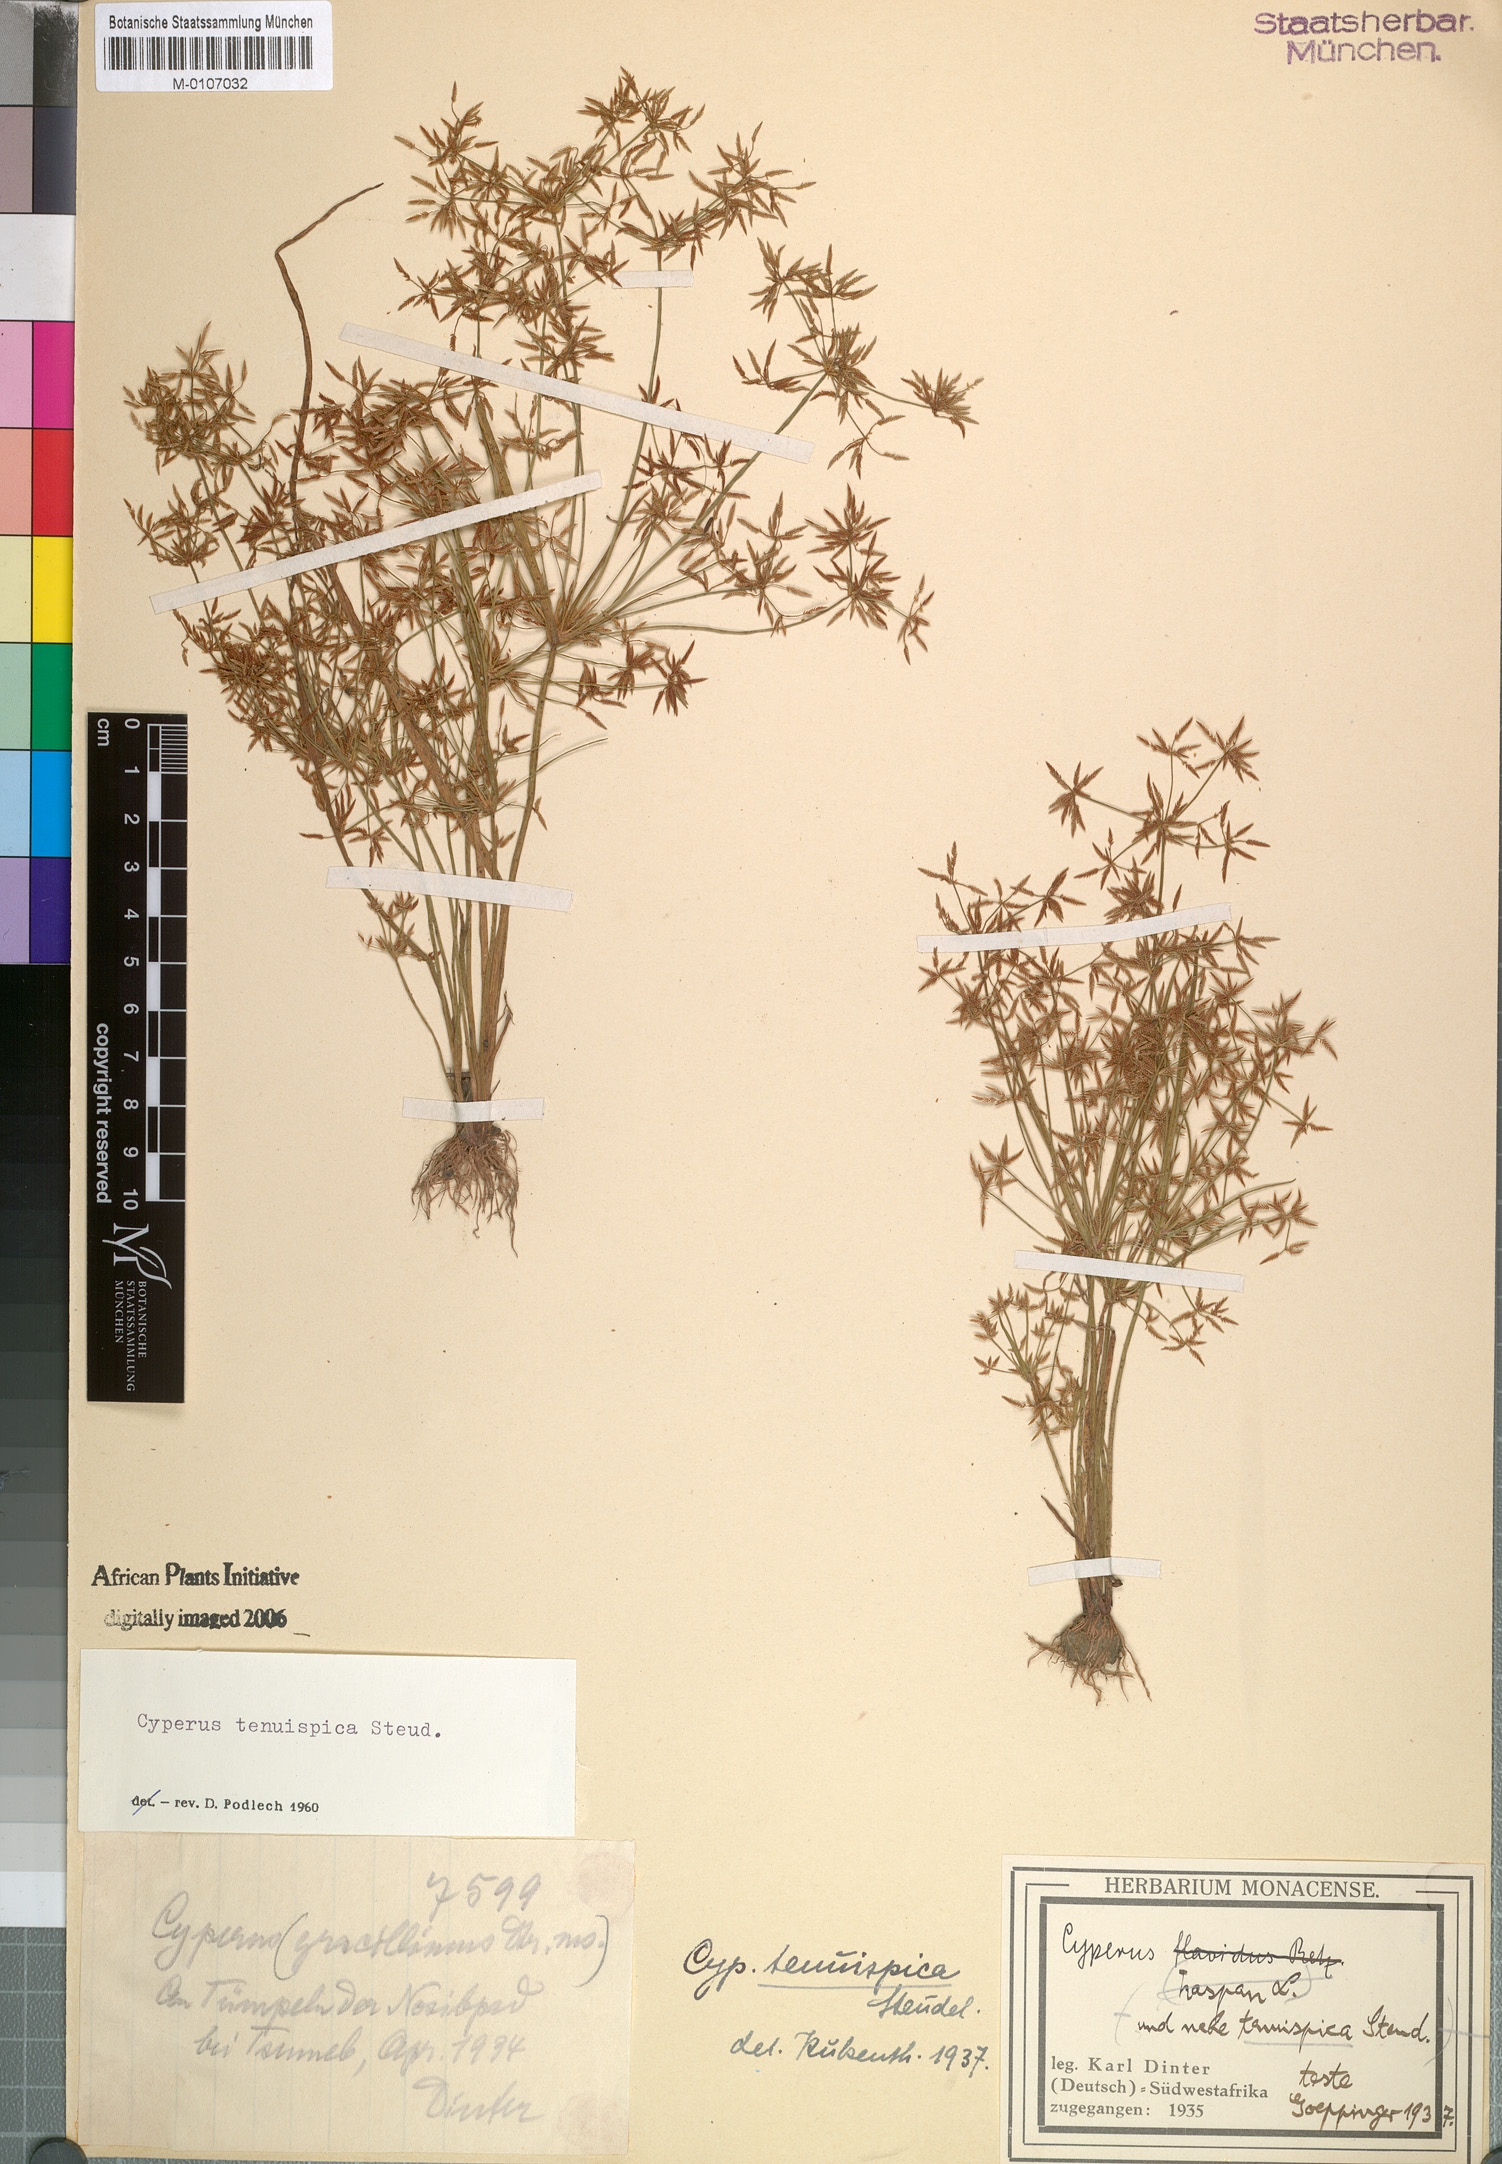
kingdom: Plantae
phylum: Tracheophyta
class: Liliopsida
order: Poales
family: Cyperaceae
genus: Cyperus
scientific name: Cyperus tenuispica
